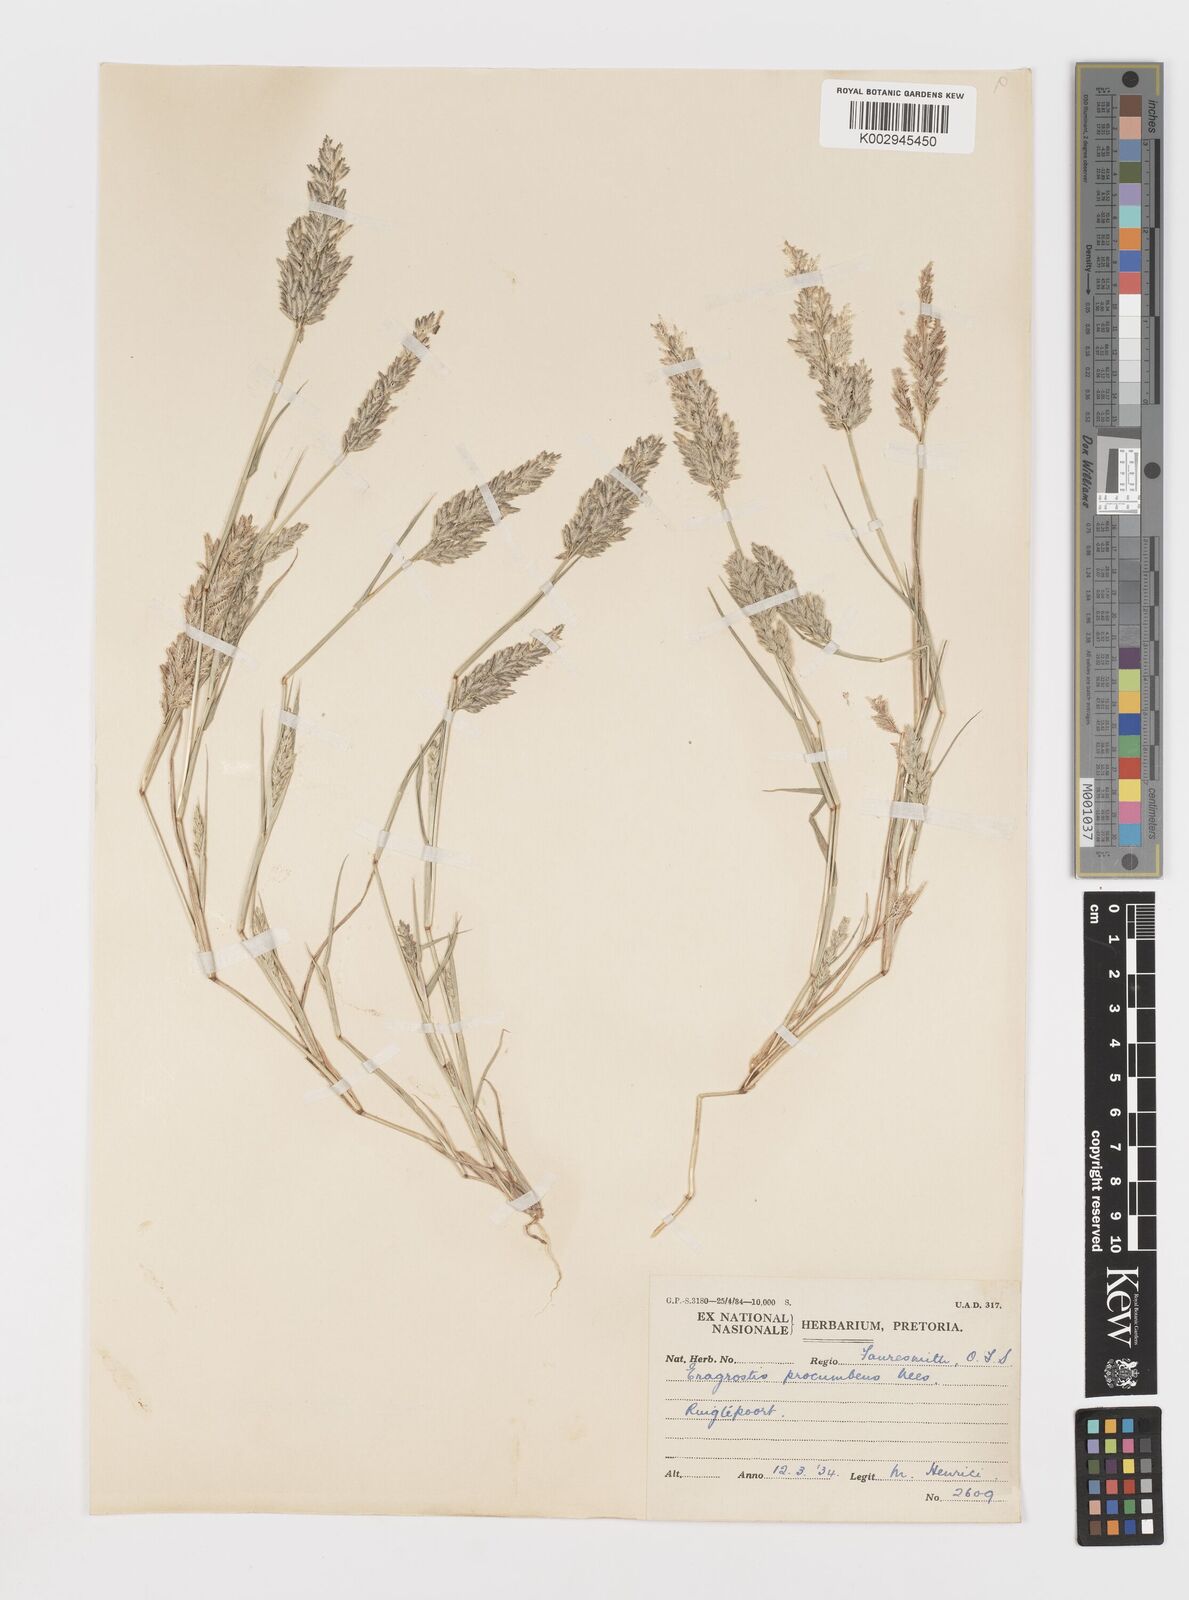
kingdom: Plantae
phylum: Tracheophyta
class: Liliopsida
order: Poales
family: Poaceae
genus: Eragrostis
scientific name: Eragrostis procumbens
